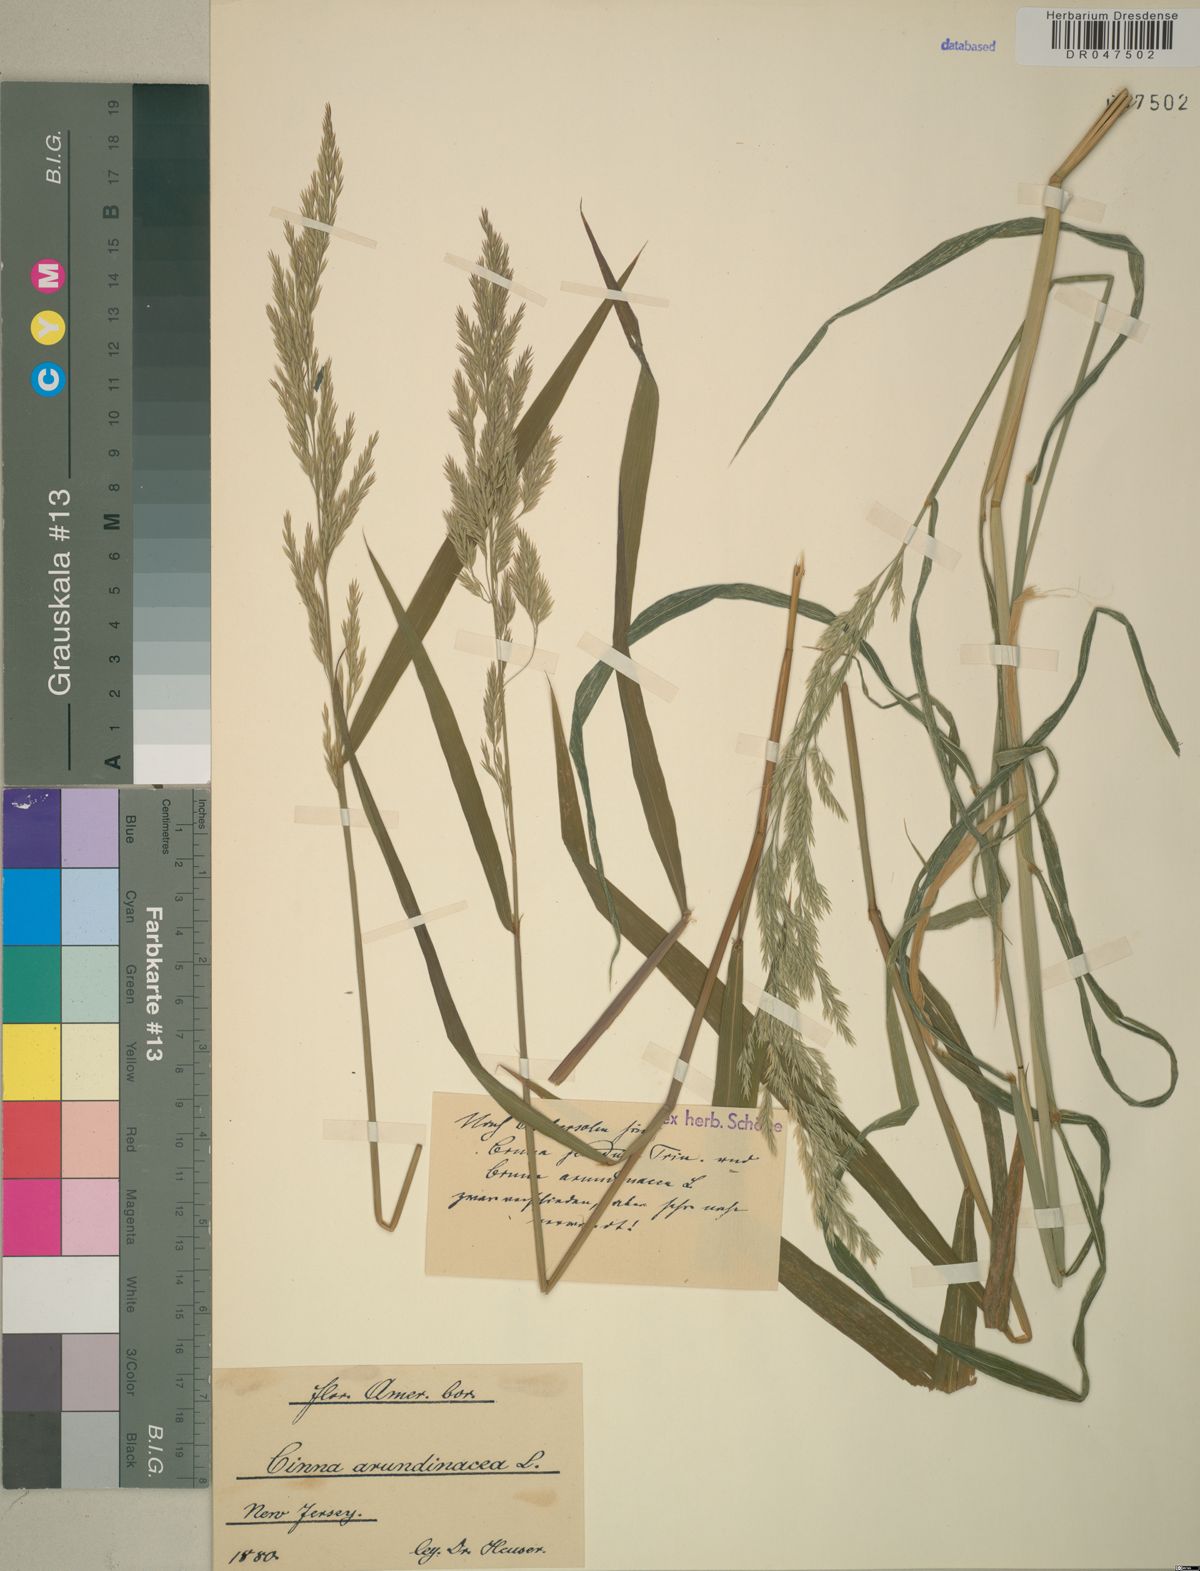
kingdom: Plantae
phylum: Tracheophyta
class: Liliopsida
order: Poales
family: Poaceae
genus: Cinna
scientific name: Cinna arundinacea
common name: Stout woodreed
